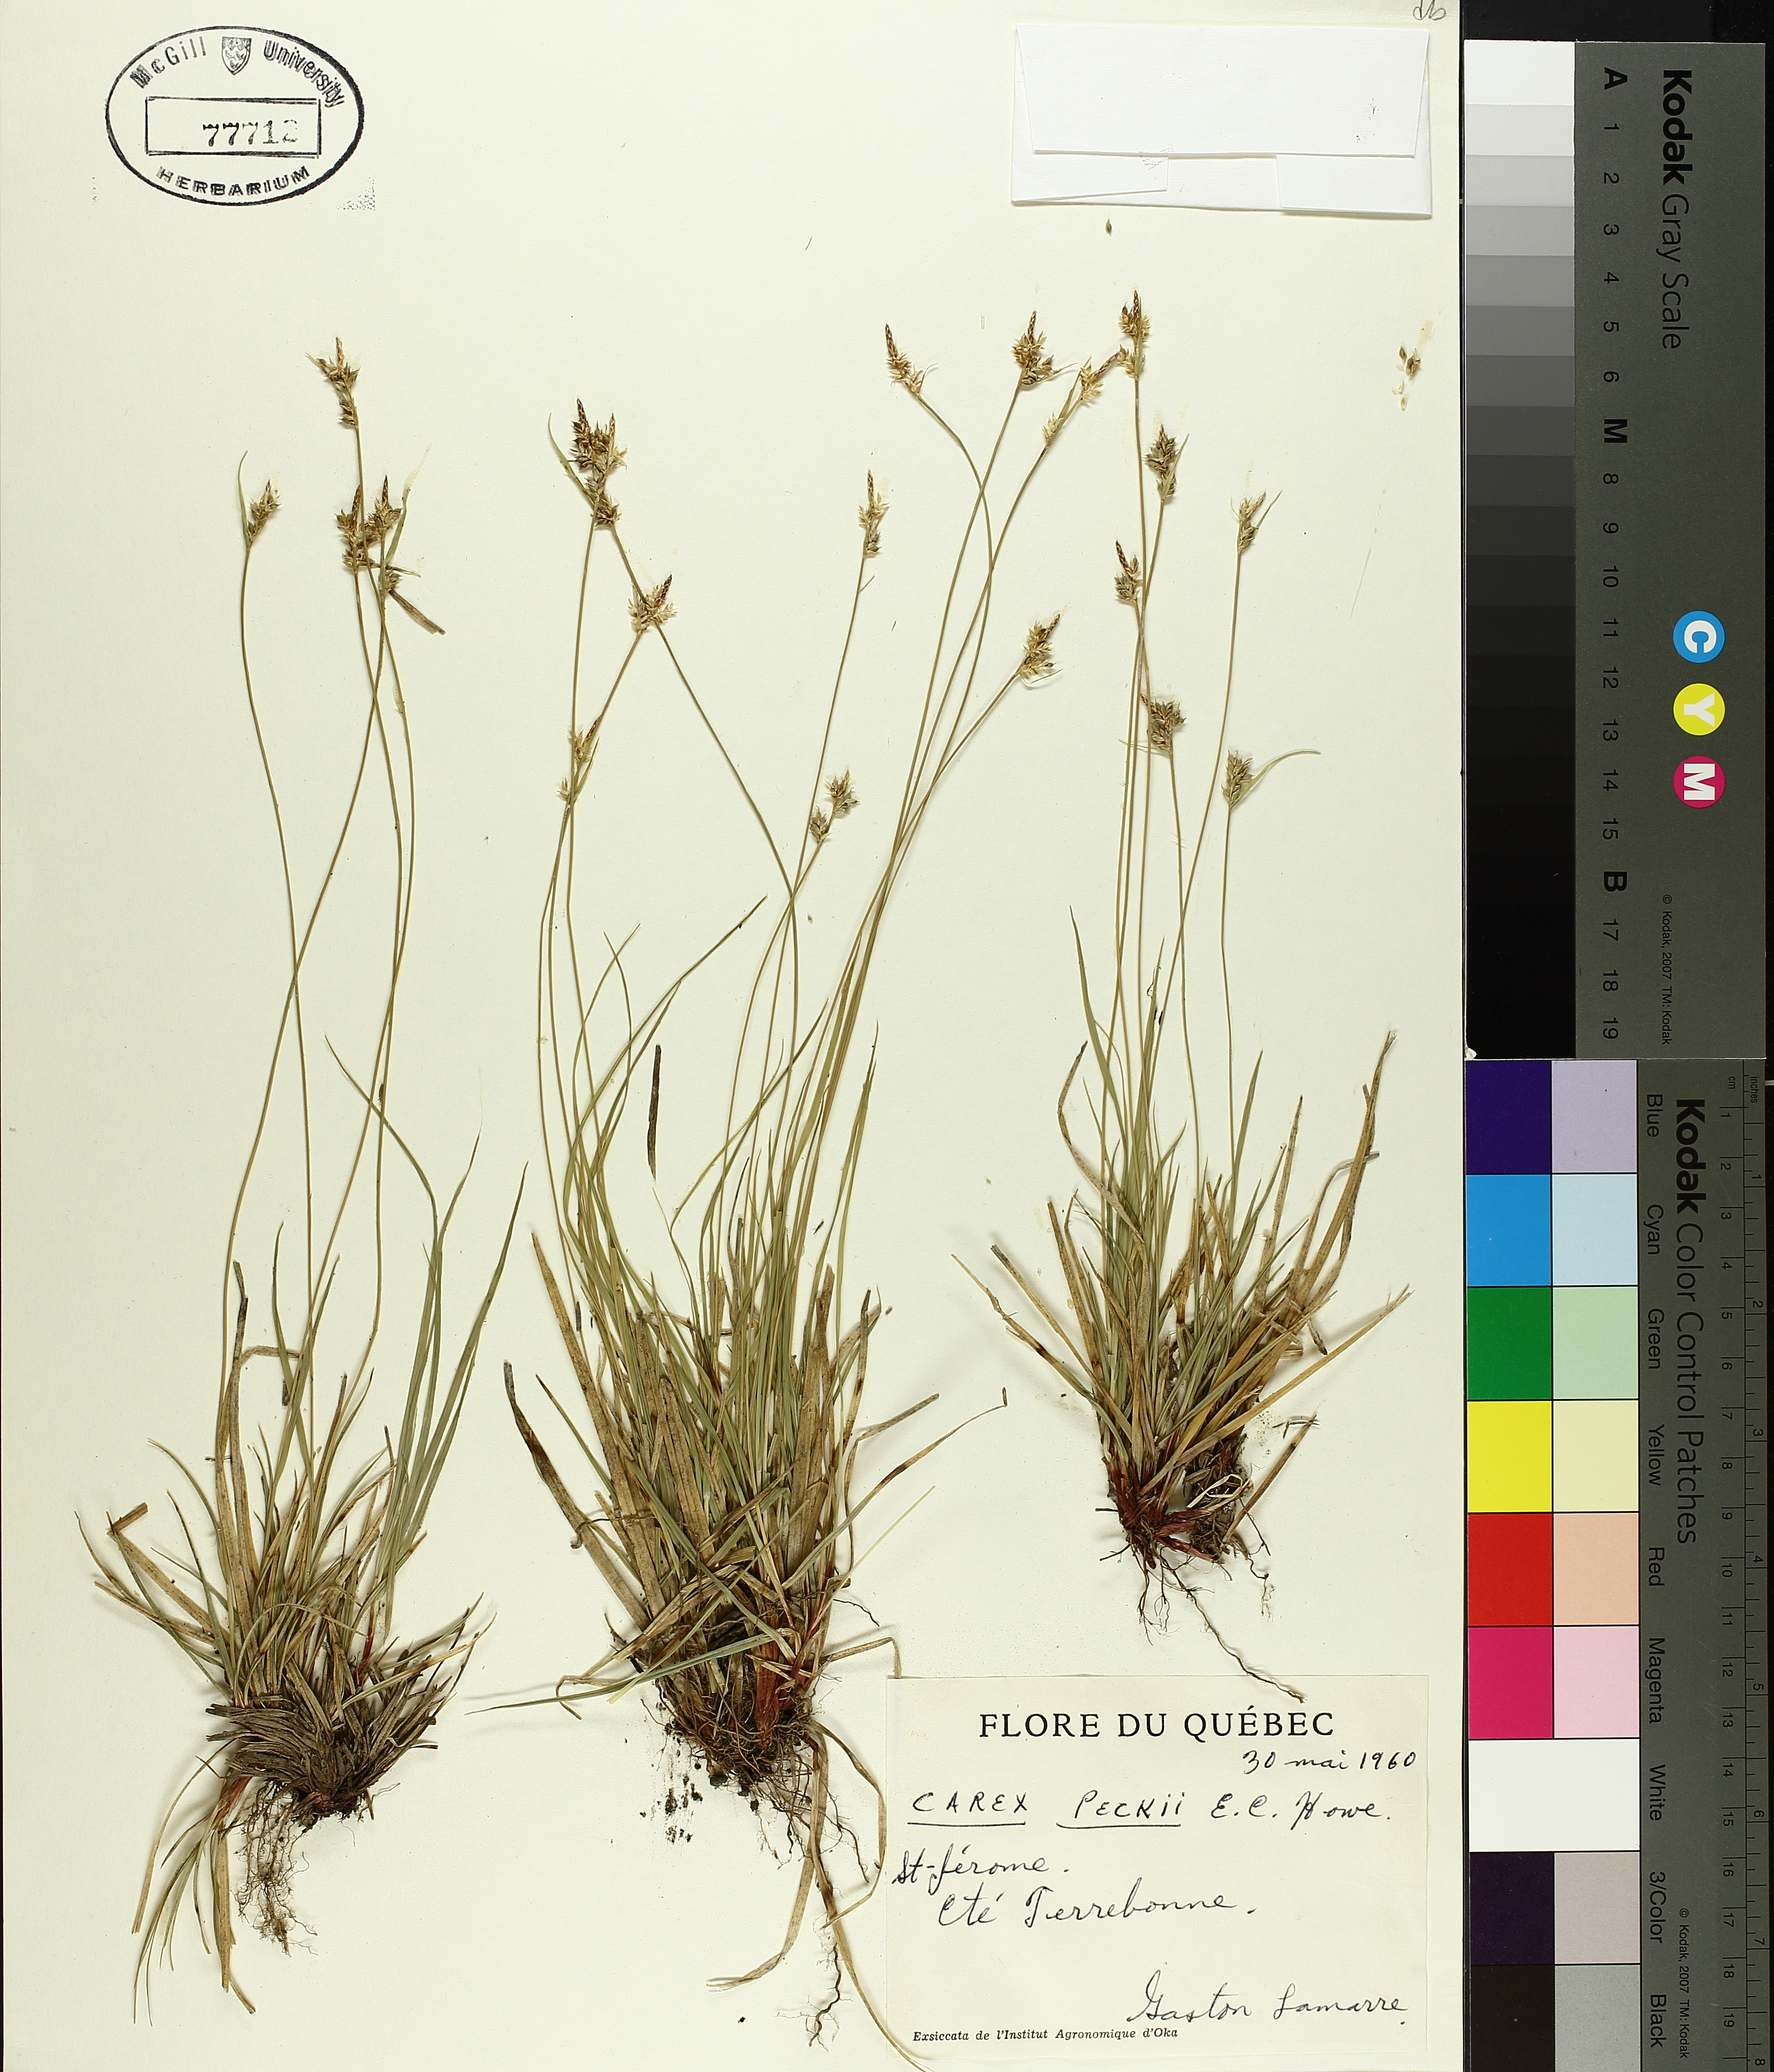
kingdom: Plantae
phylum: Tracheophyta
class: Liliopsida
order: Poales
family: Cyperaceae
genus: Carex
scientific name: Carex peckii
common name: Peck's oak sedge
